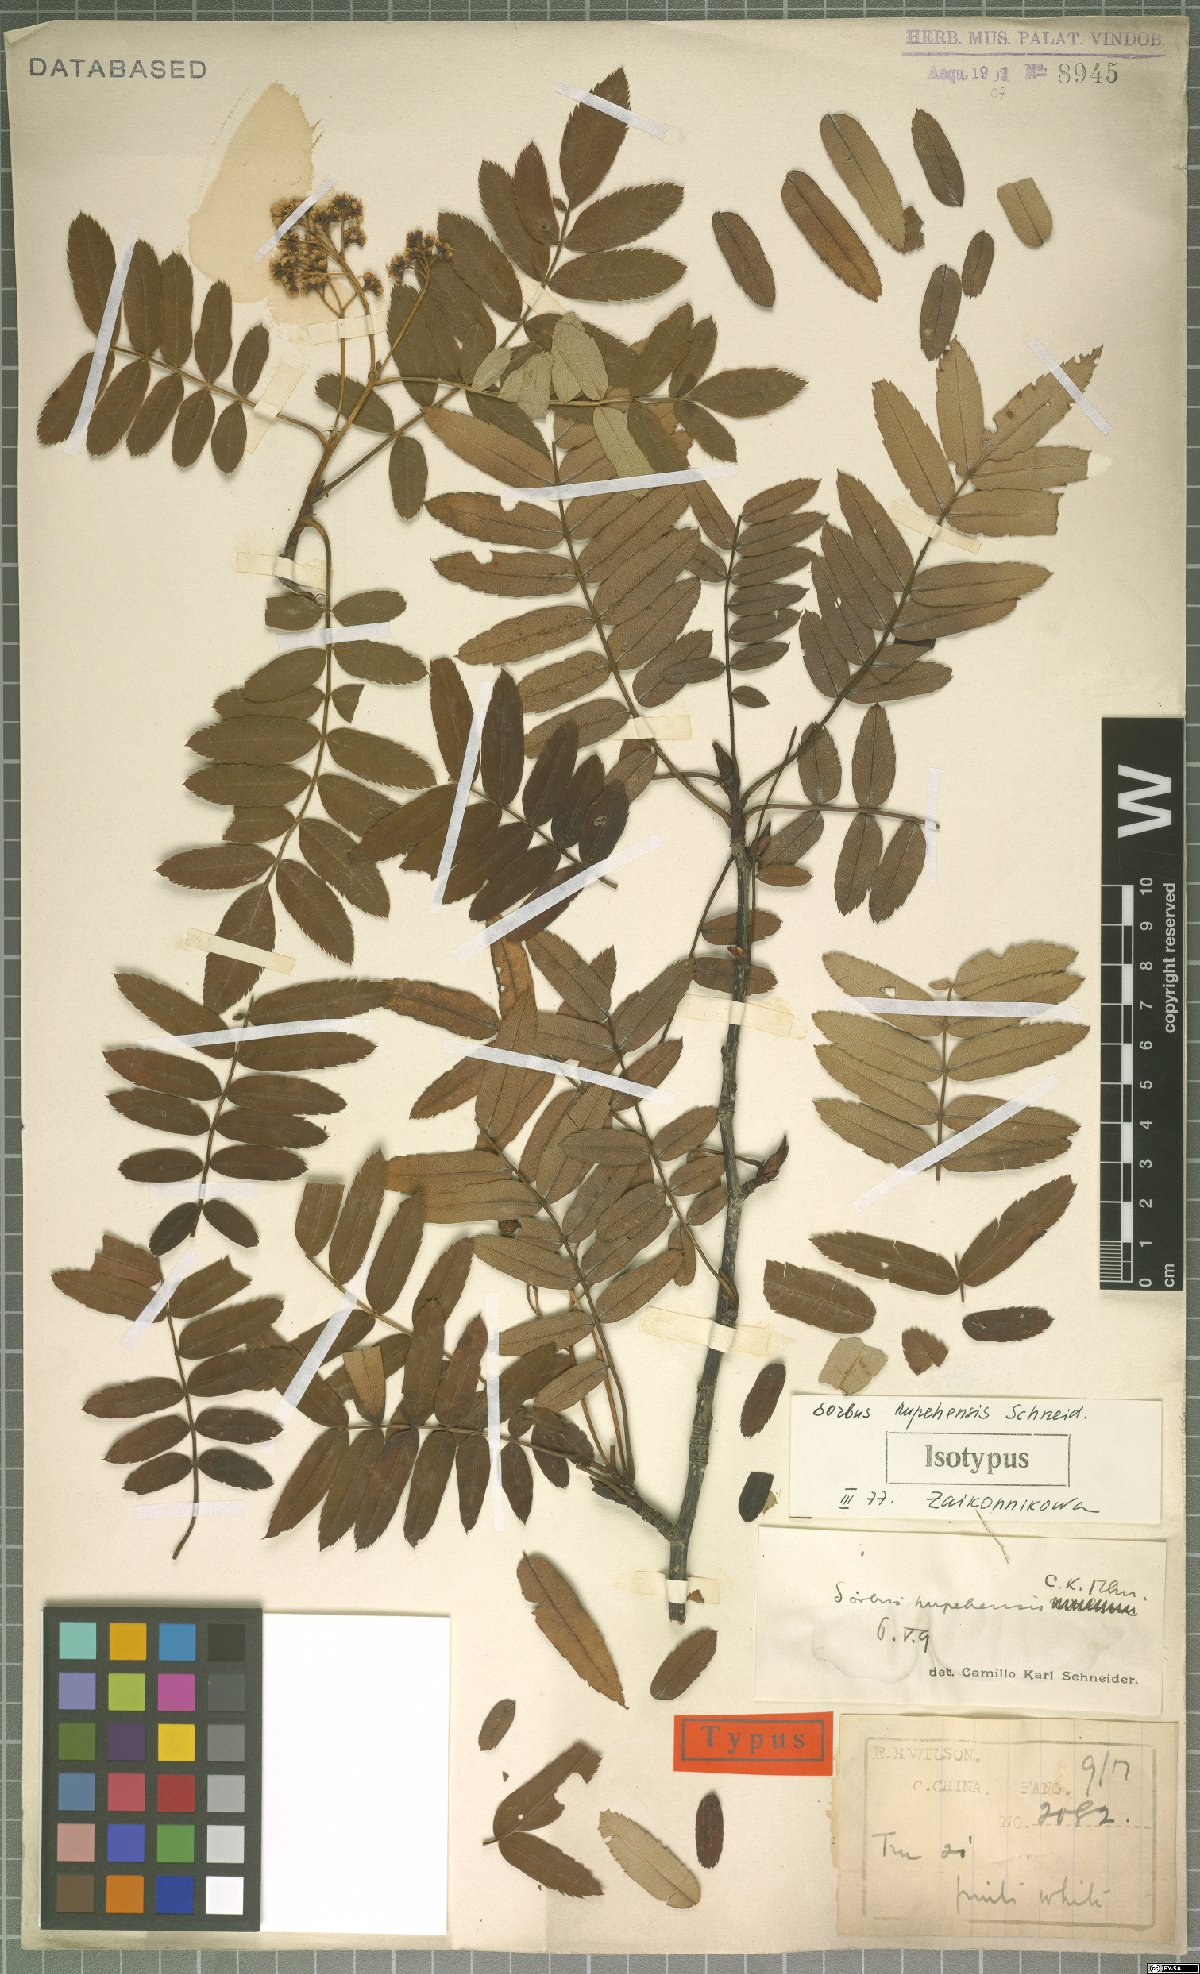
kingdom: Plantae
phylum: Tracheophyta
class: Magnoliopsida
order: Rosales
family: Rosaceae
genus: Sorbus
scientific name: Sorbus hupehensis
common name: Hupeh rowan
